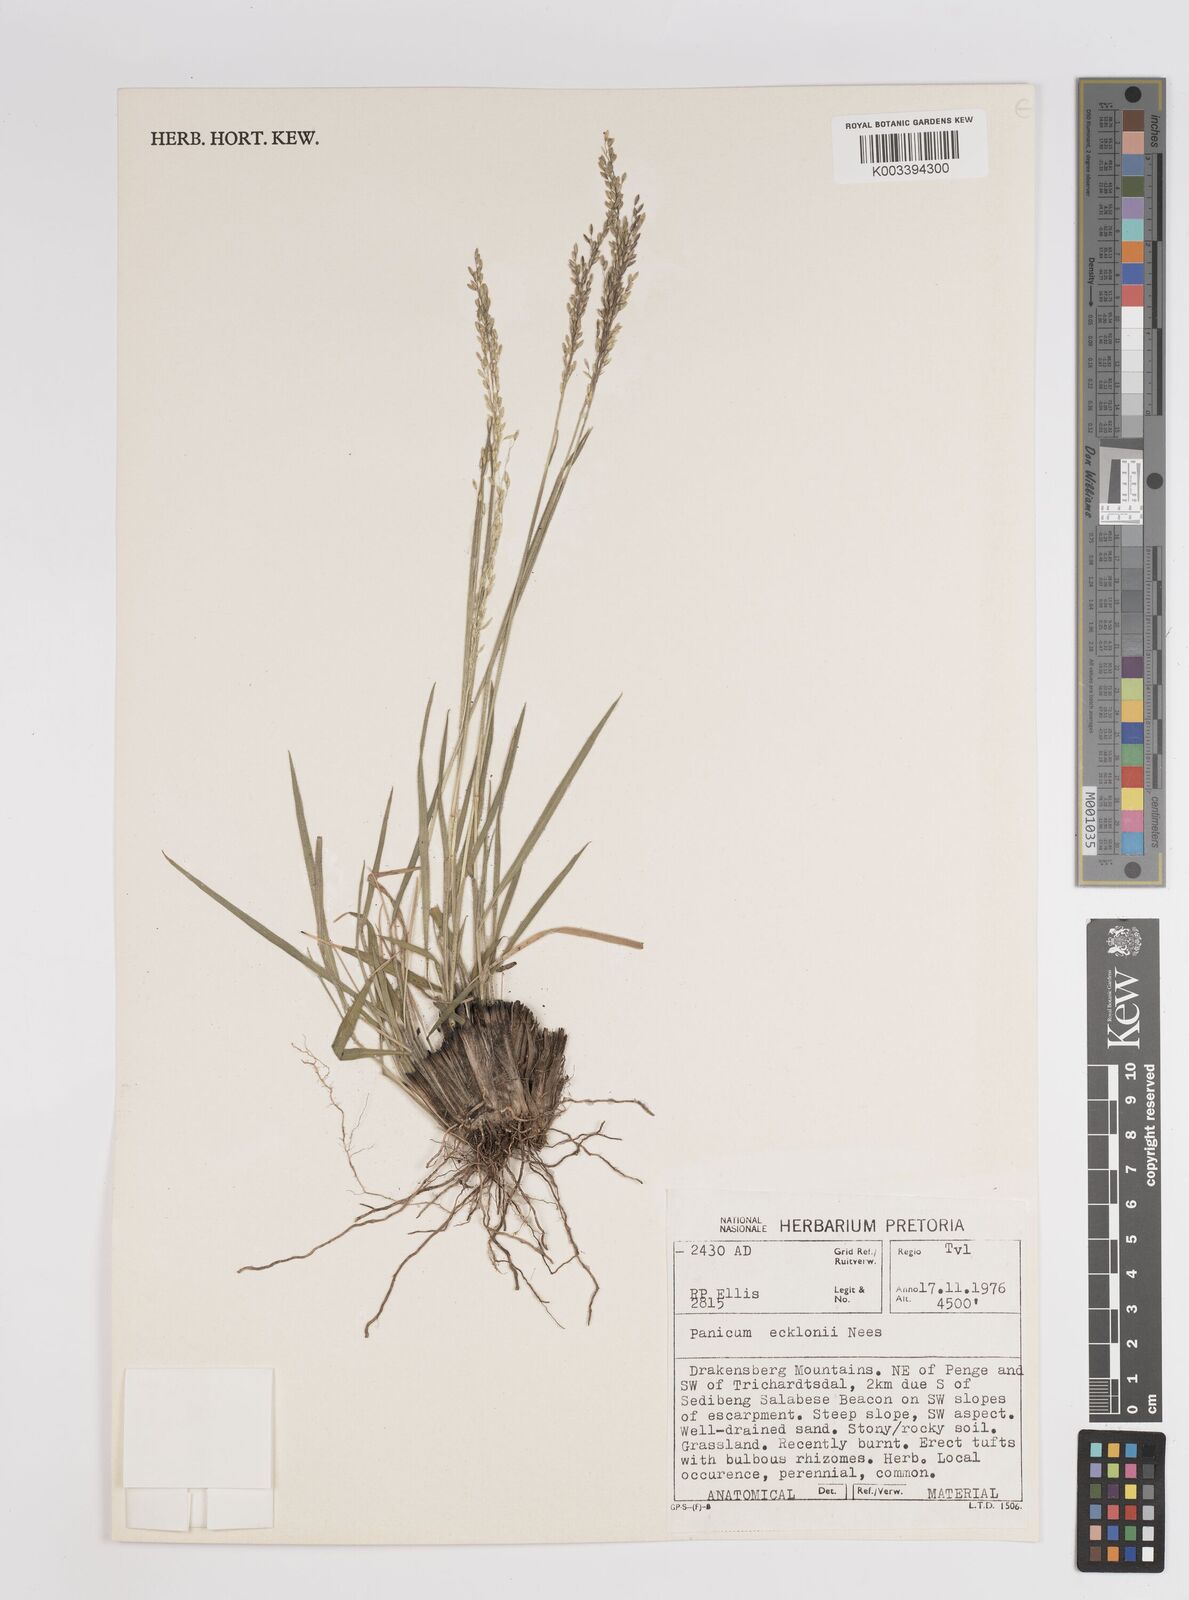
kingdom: Plantae
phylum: Tracheophyta
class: Liliopsida
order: Poales
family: Poaceae
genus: Adenochloa
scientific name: Adenochloa ecklonii
